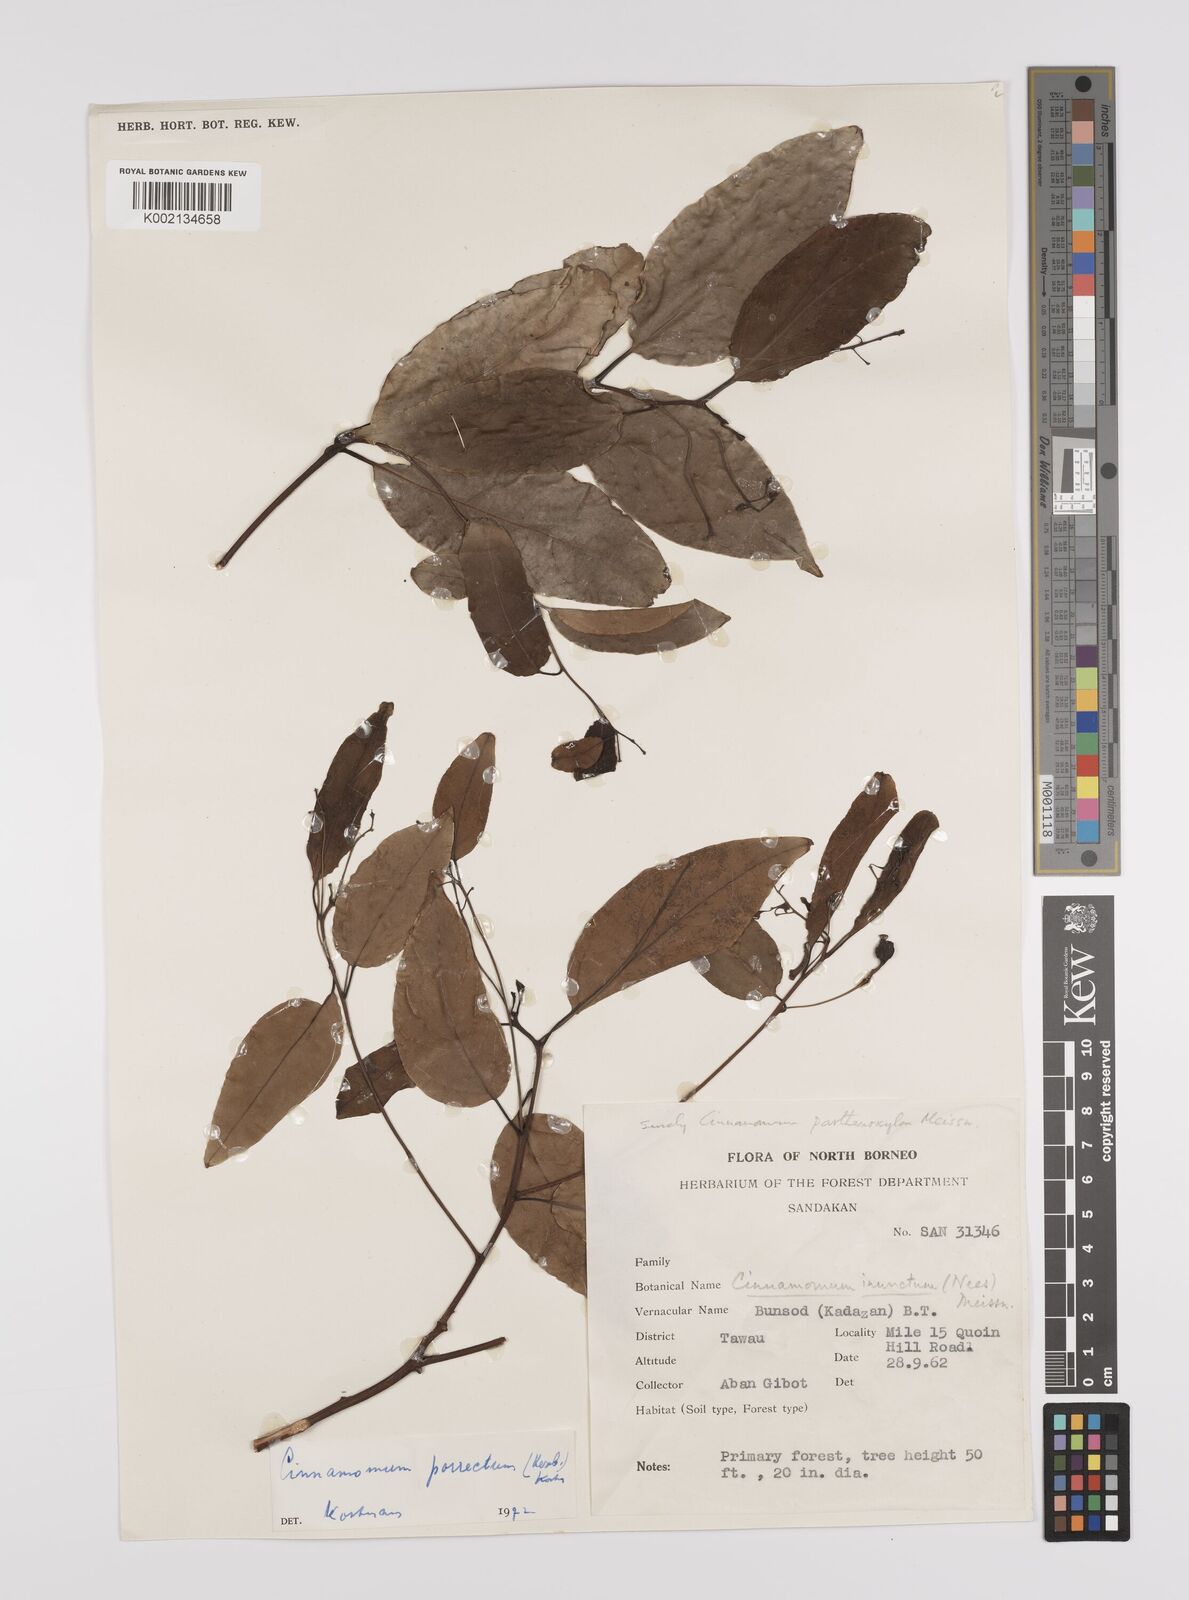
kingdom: Plantae
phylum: Tracheophyta
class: Magnoliopsida
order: Laurales
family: Lauraceae
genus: Cinnamomum
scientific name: Cinnamomum parthenoxylon
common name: Martaban camphor wood
